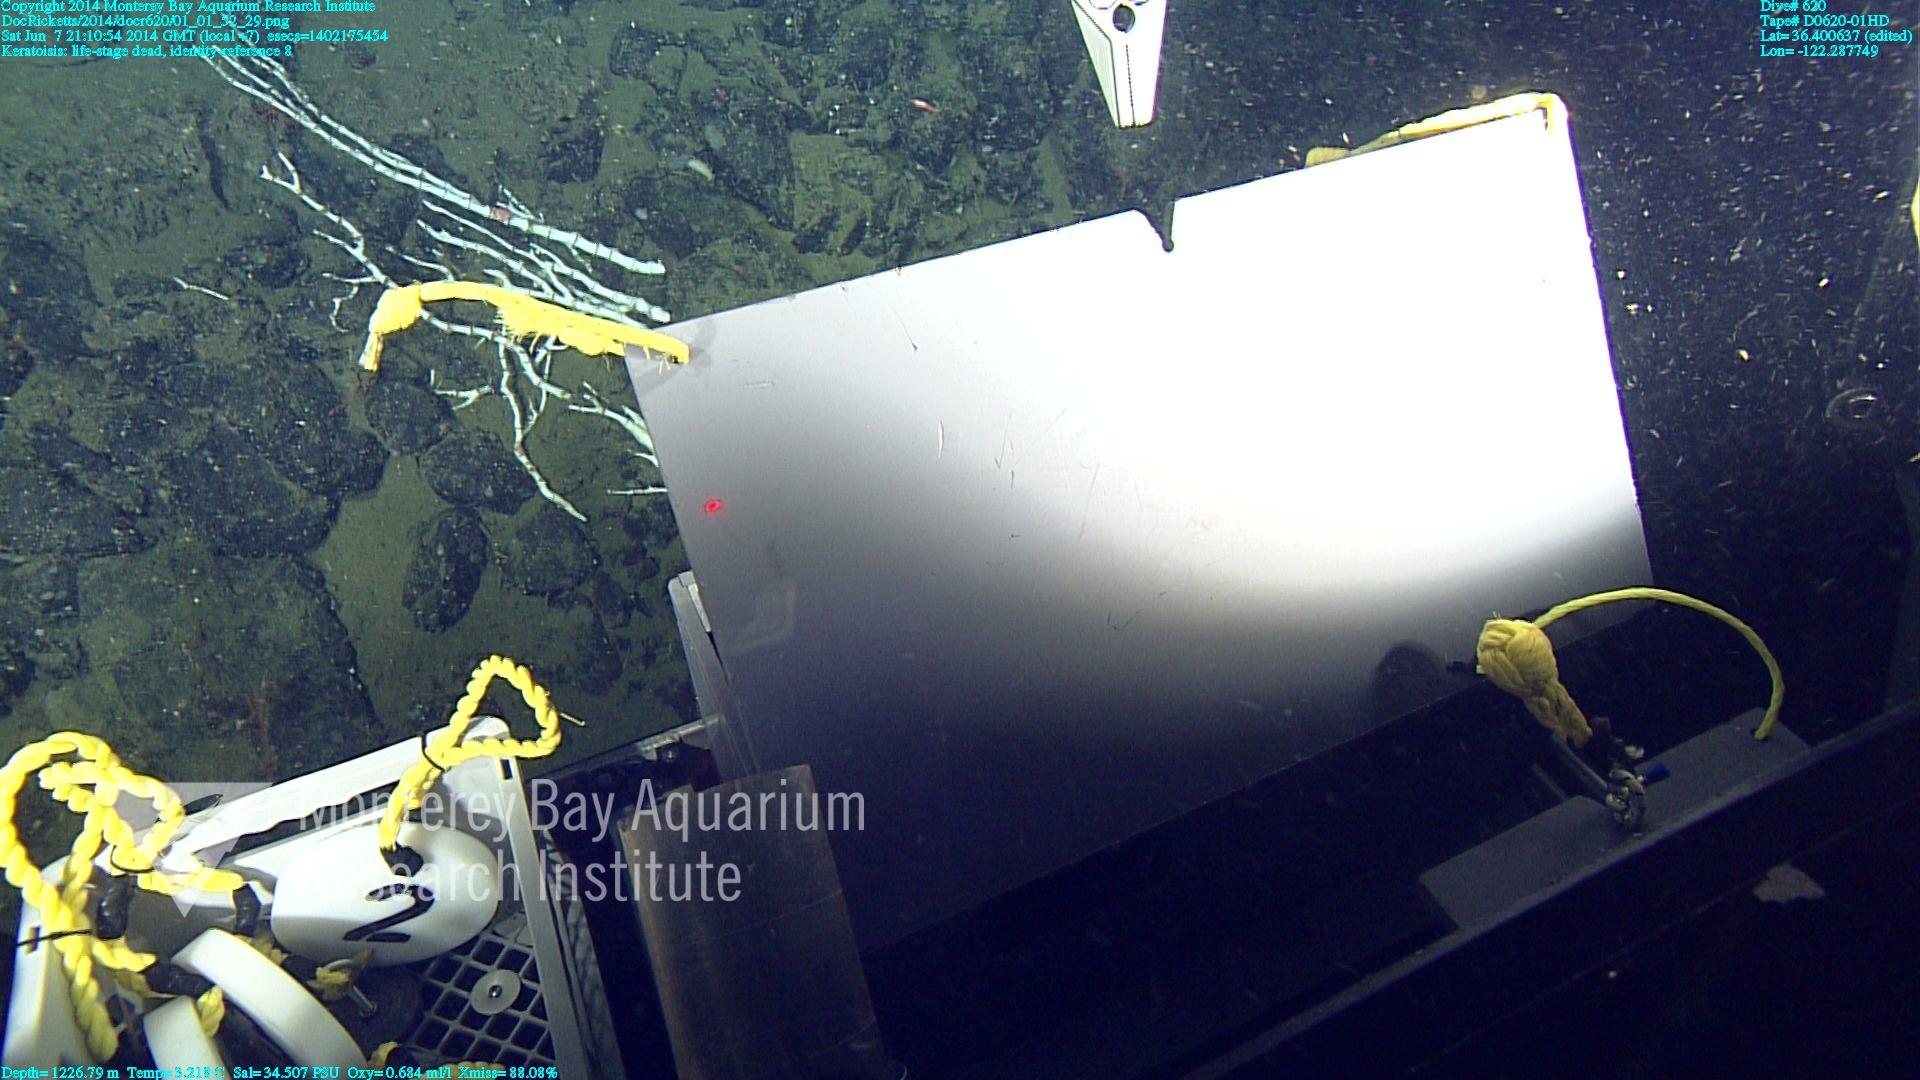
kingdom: Animalia
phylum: Cnidaria
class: Anthozoa
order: Scleralcyonacea
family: Keratoisididae
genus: Keratoisis
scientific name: Keratoisis
